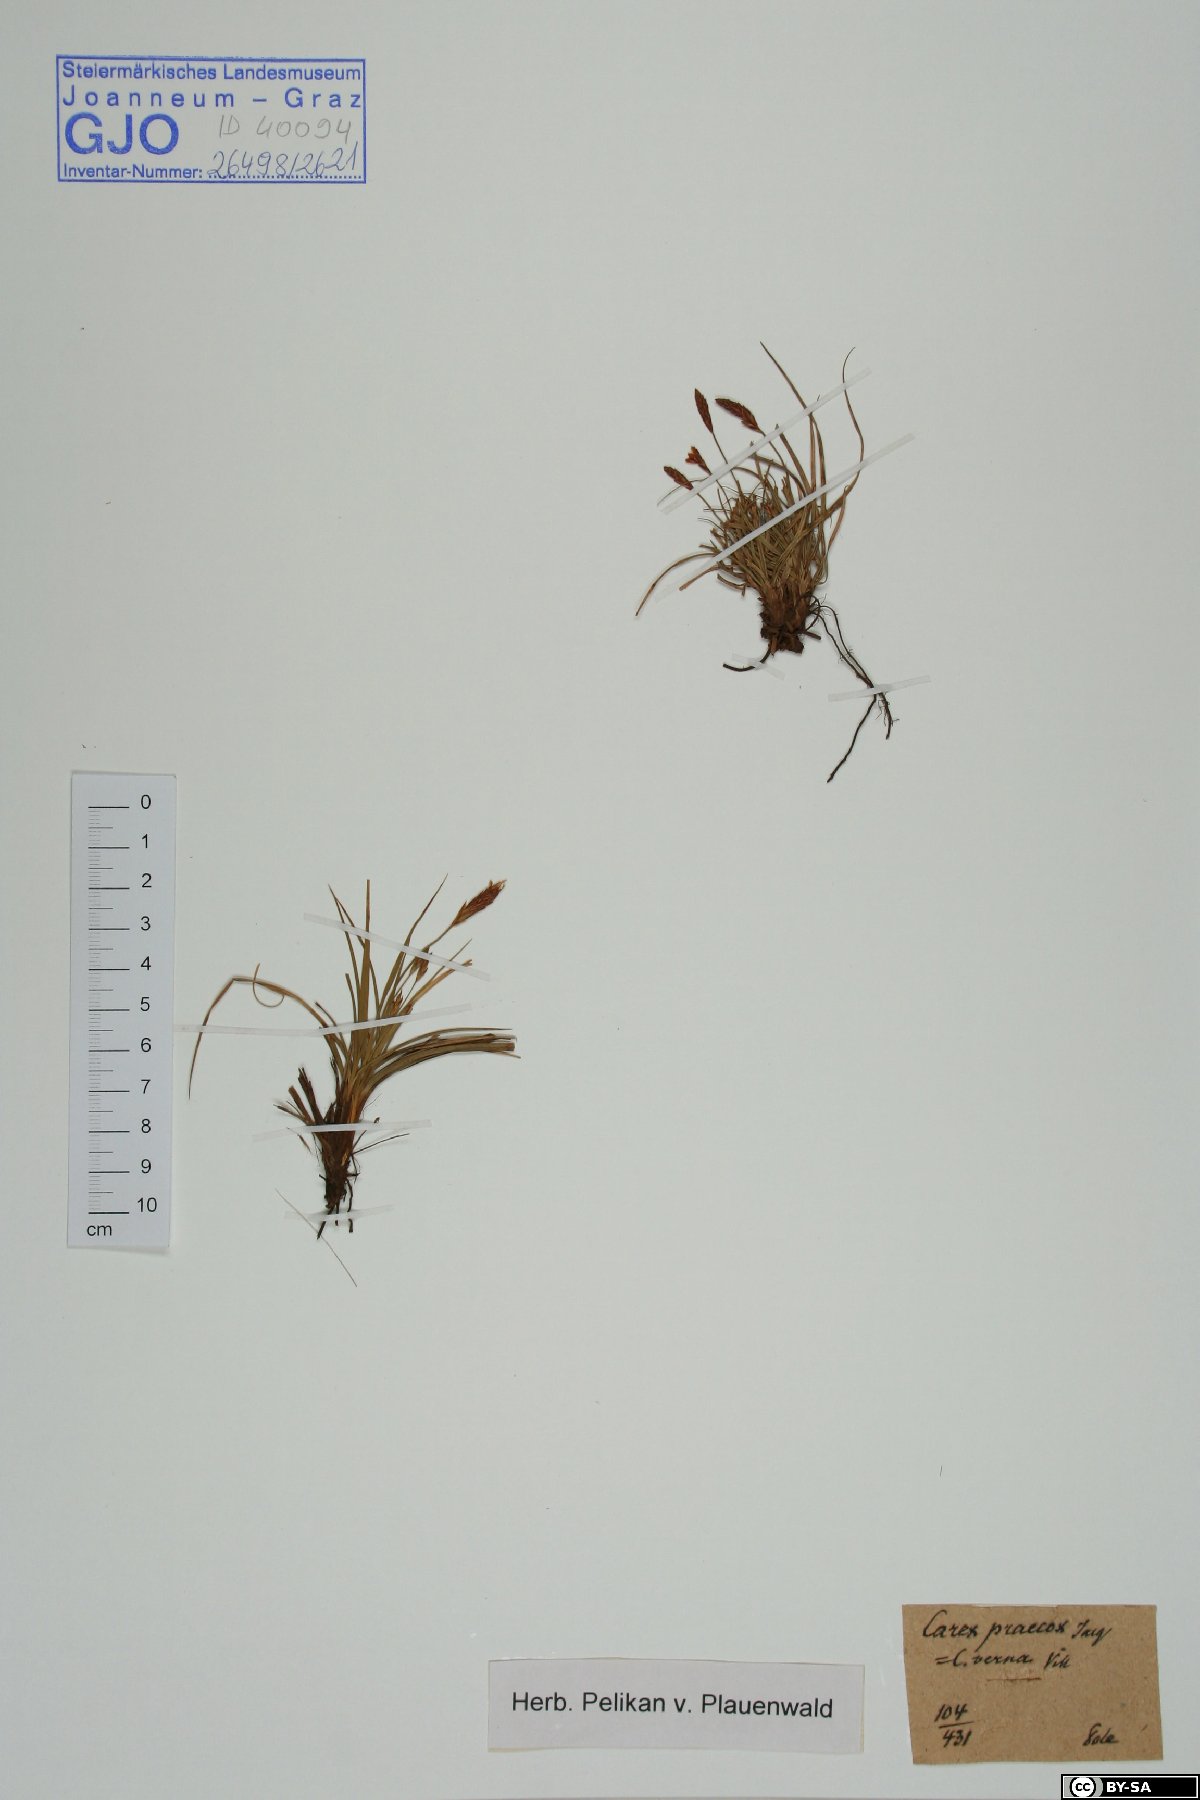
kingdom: Plantae
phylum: Tracheophyta
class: Liliopsida
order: Poales
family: Cyperaceae
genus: Carex
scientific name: Carex praecox
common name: Early sedge
